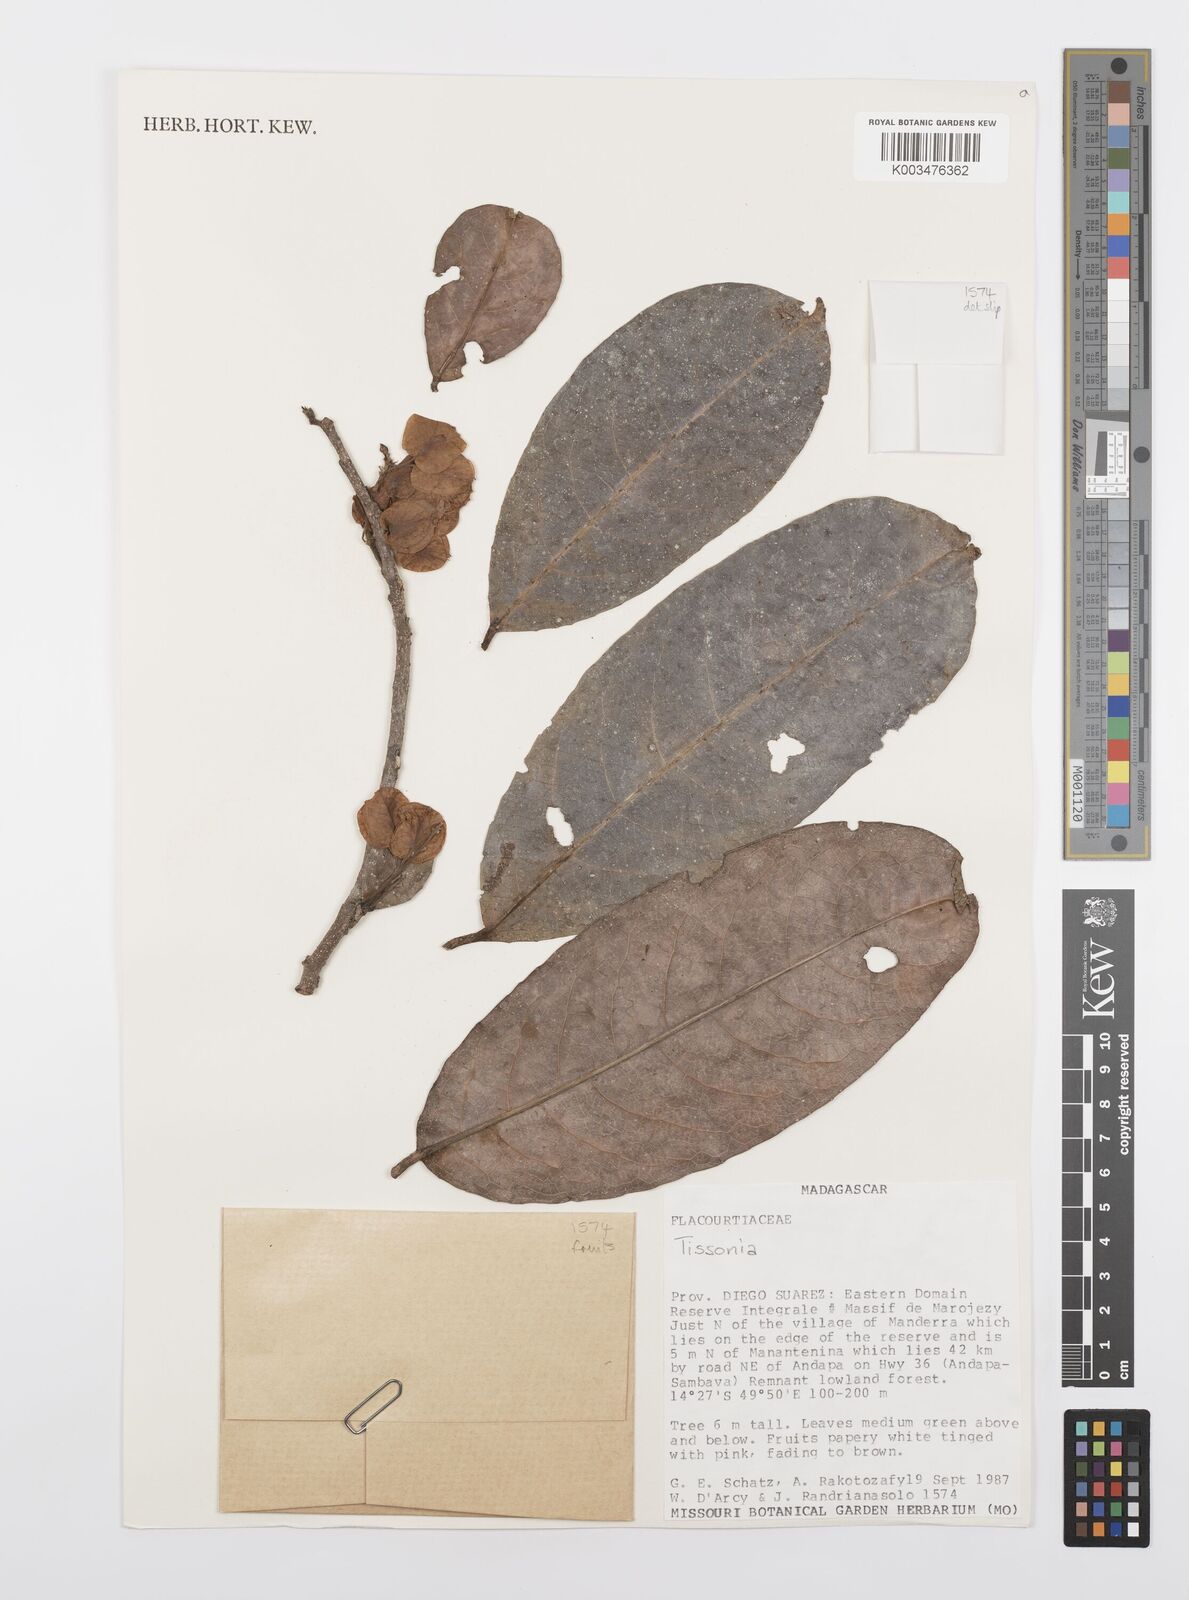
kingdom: Plantae
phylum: Tracheophyta
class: Magnoliopsida
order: Malpighiales
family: Salicaceae
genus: Tisonia
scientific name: Tisonia
